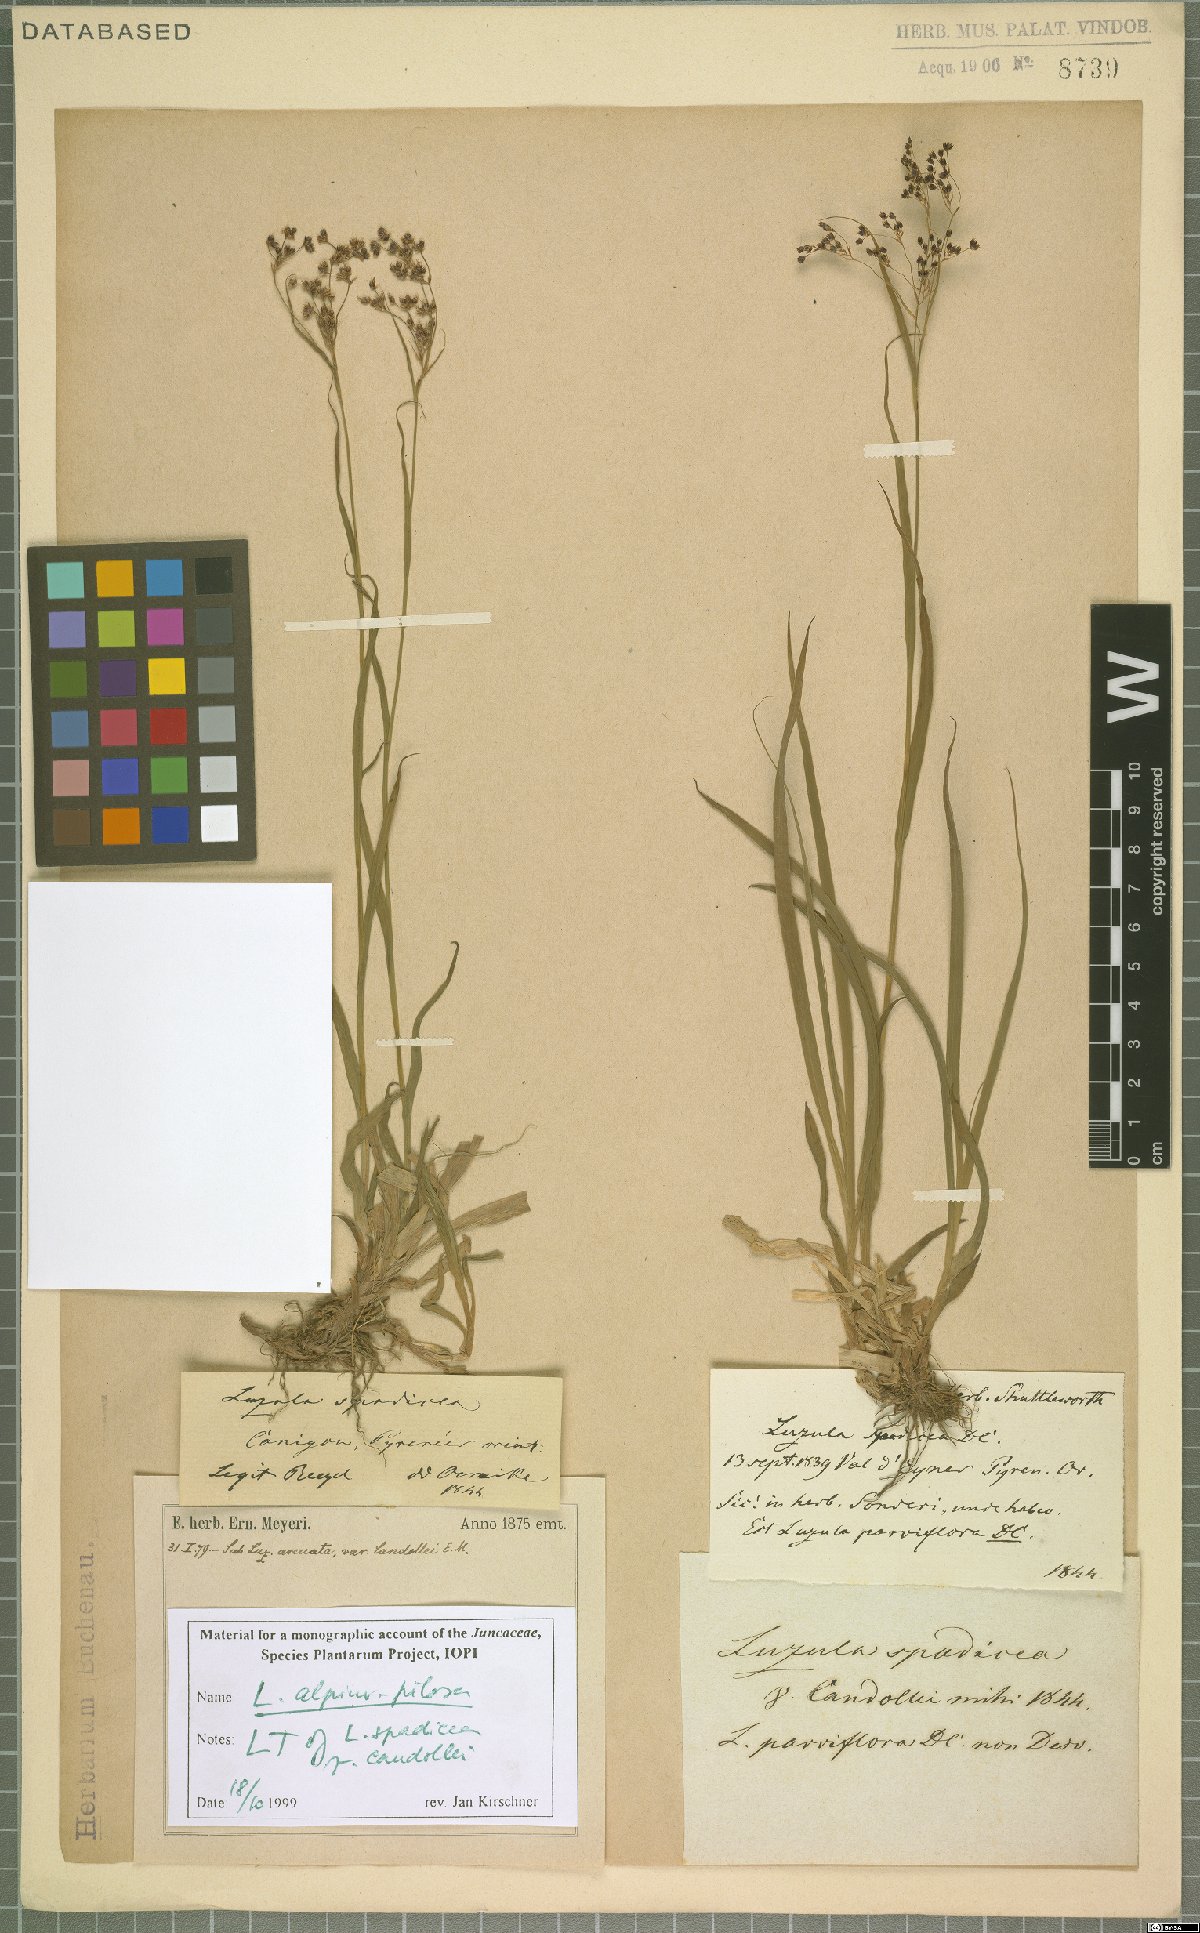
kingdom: Plantae
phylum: Tracheophyta
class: Liliopsida
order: Poales
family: Juncaceae
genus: Luzula
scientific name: Luzula alpinopilosa
